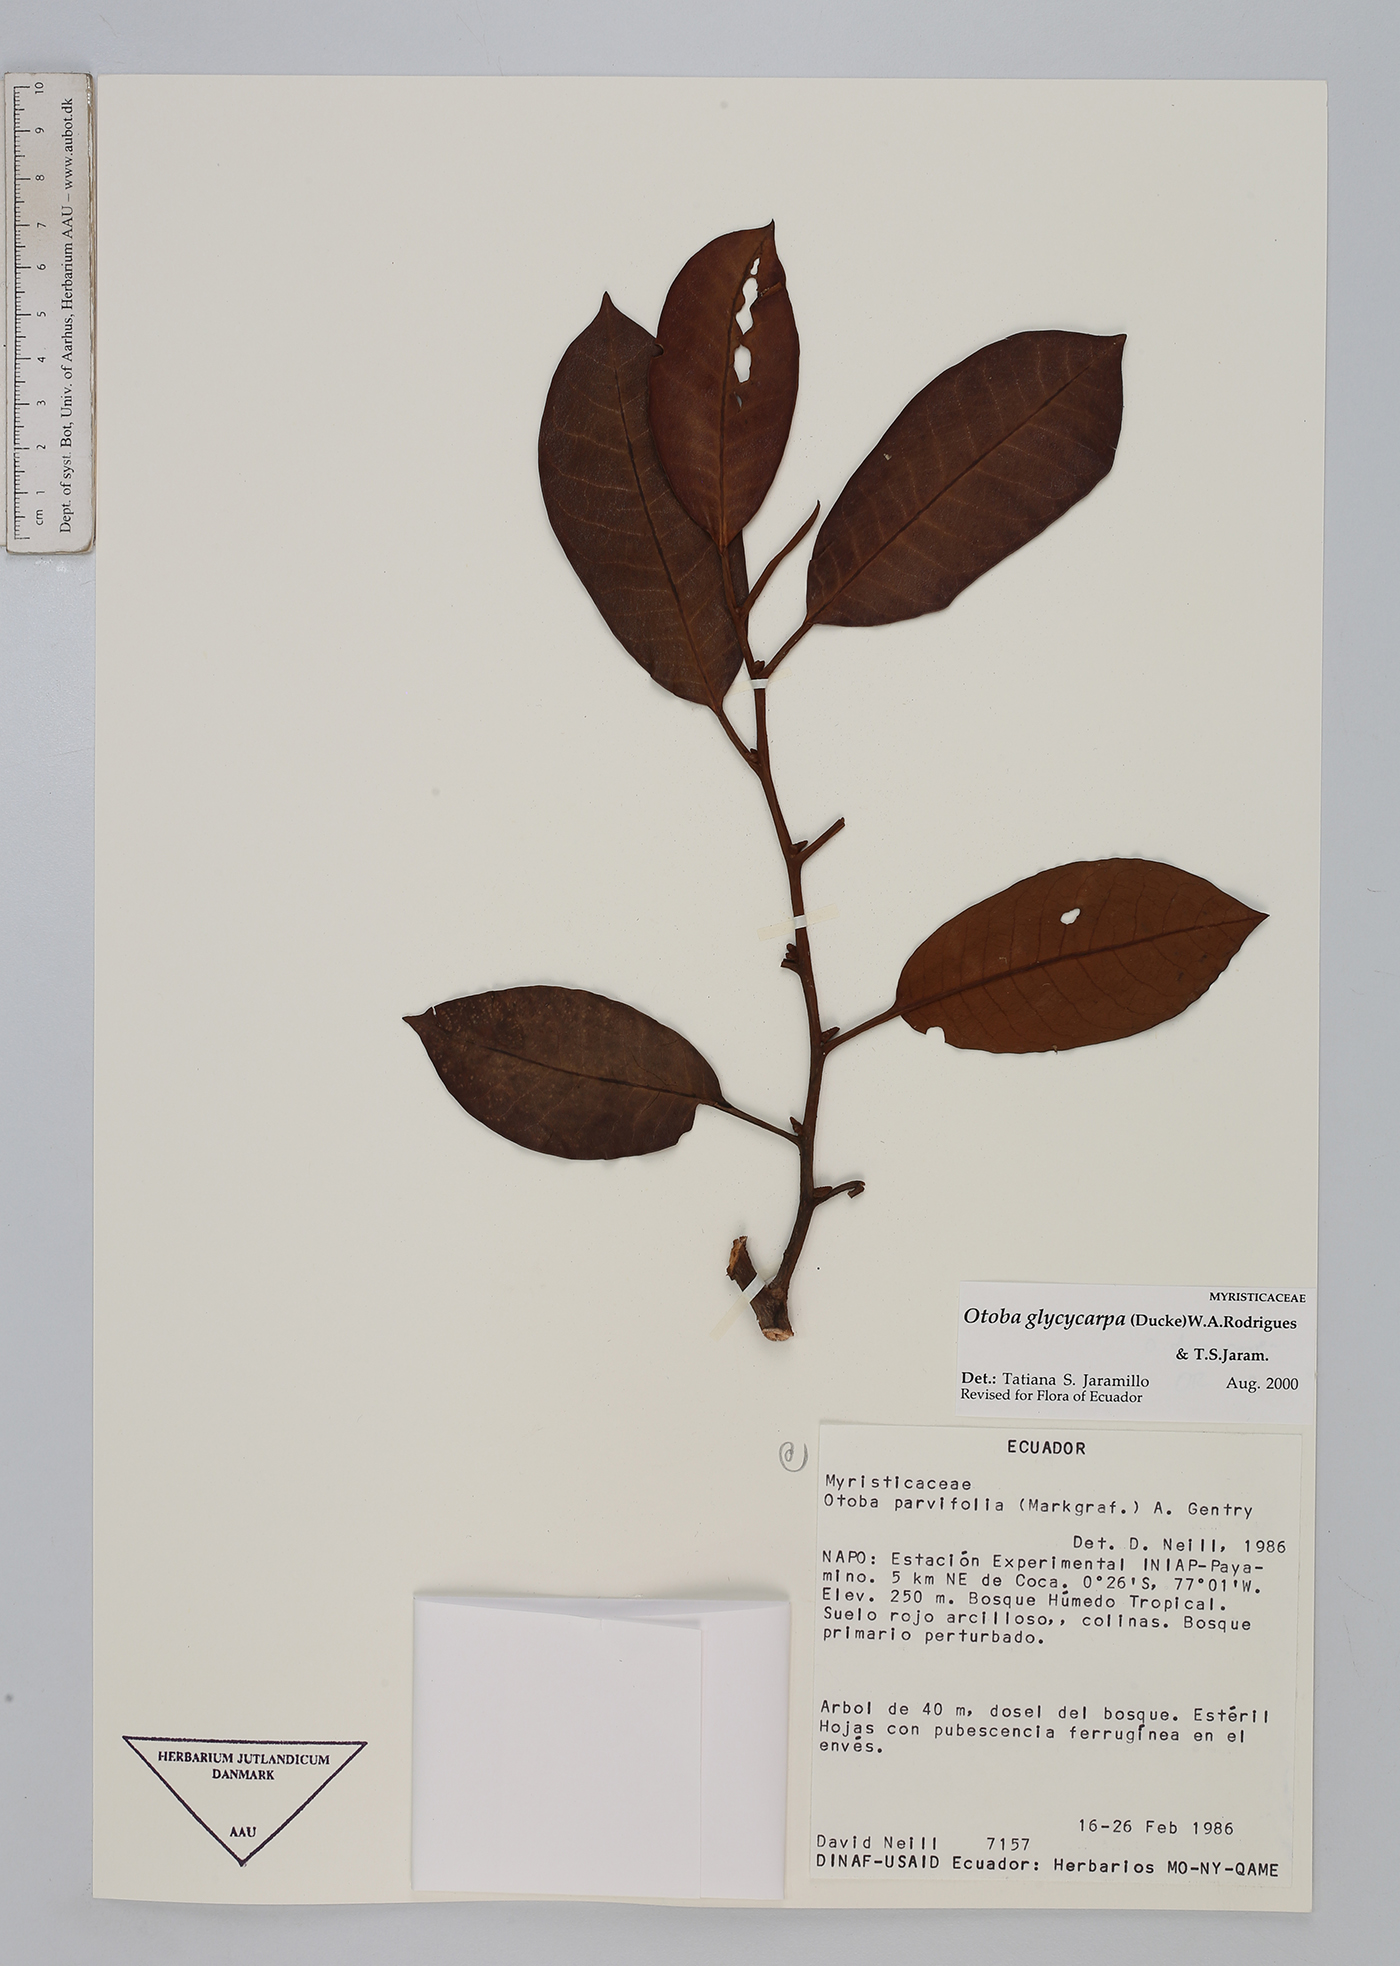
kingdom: Plantae
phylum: Tracheophyta
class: Magnoliopsida
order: Magnoliales
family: Myristicaceae
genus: Otoba
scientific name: Otoba glycycarpa
